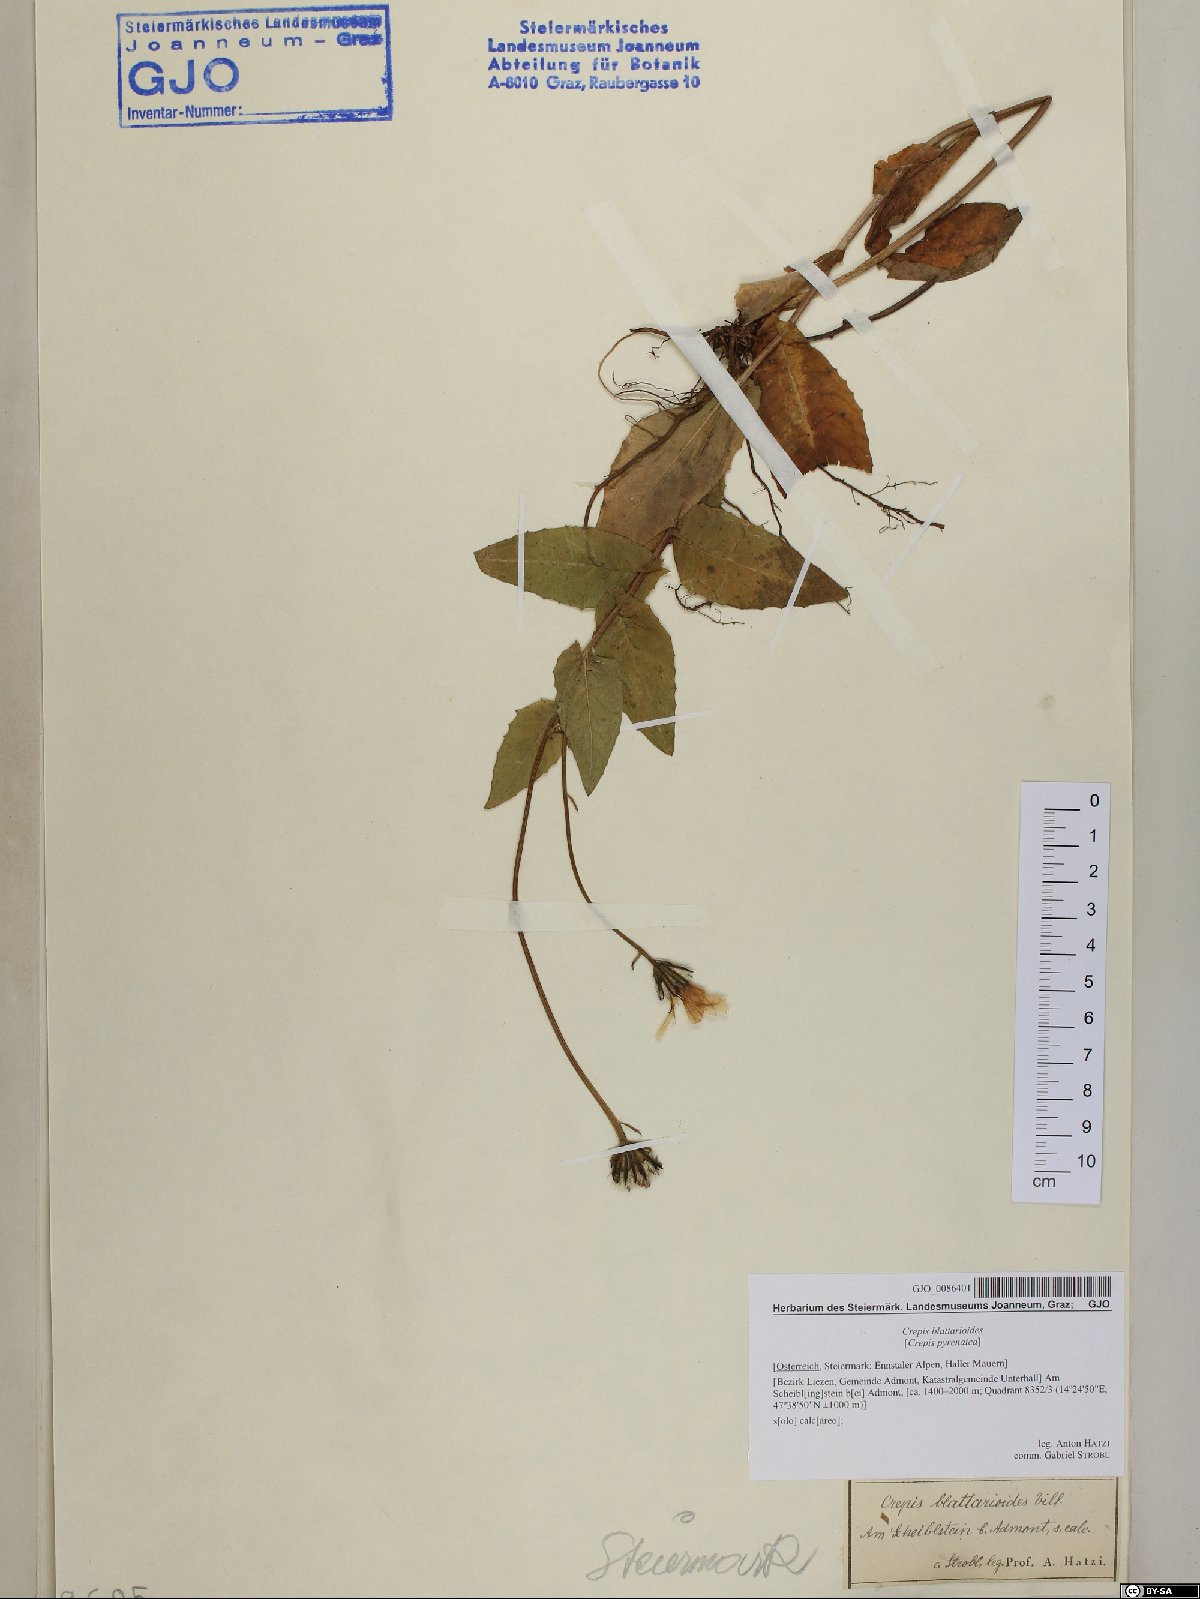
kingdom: Plantae
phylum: Tracheophyta
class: Magnoliopsida
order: Asterales
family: Asteraceae
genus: Crepis
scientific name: Crepis blattarioides
